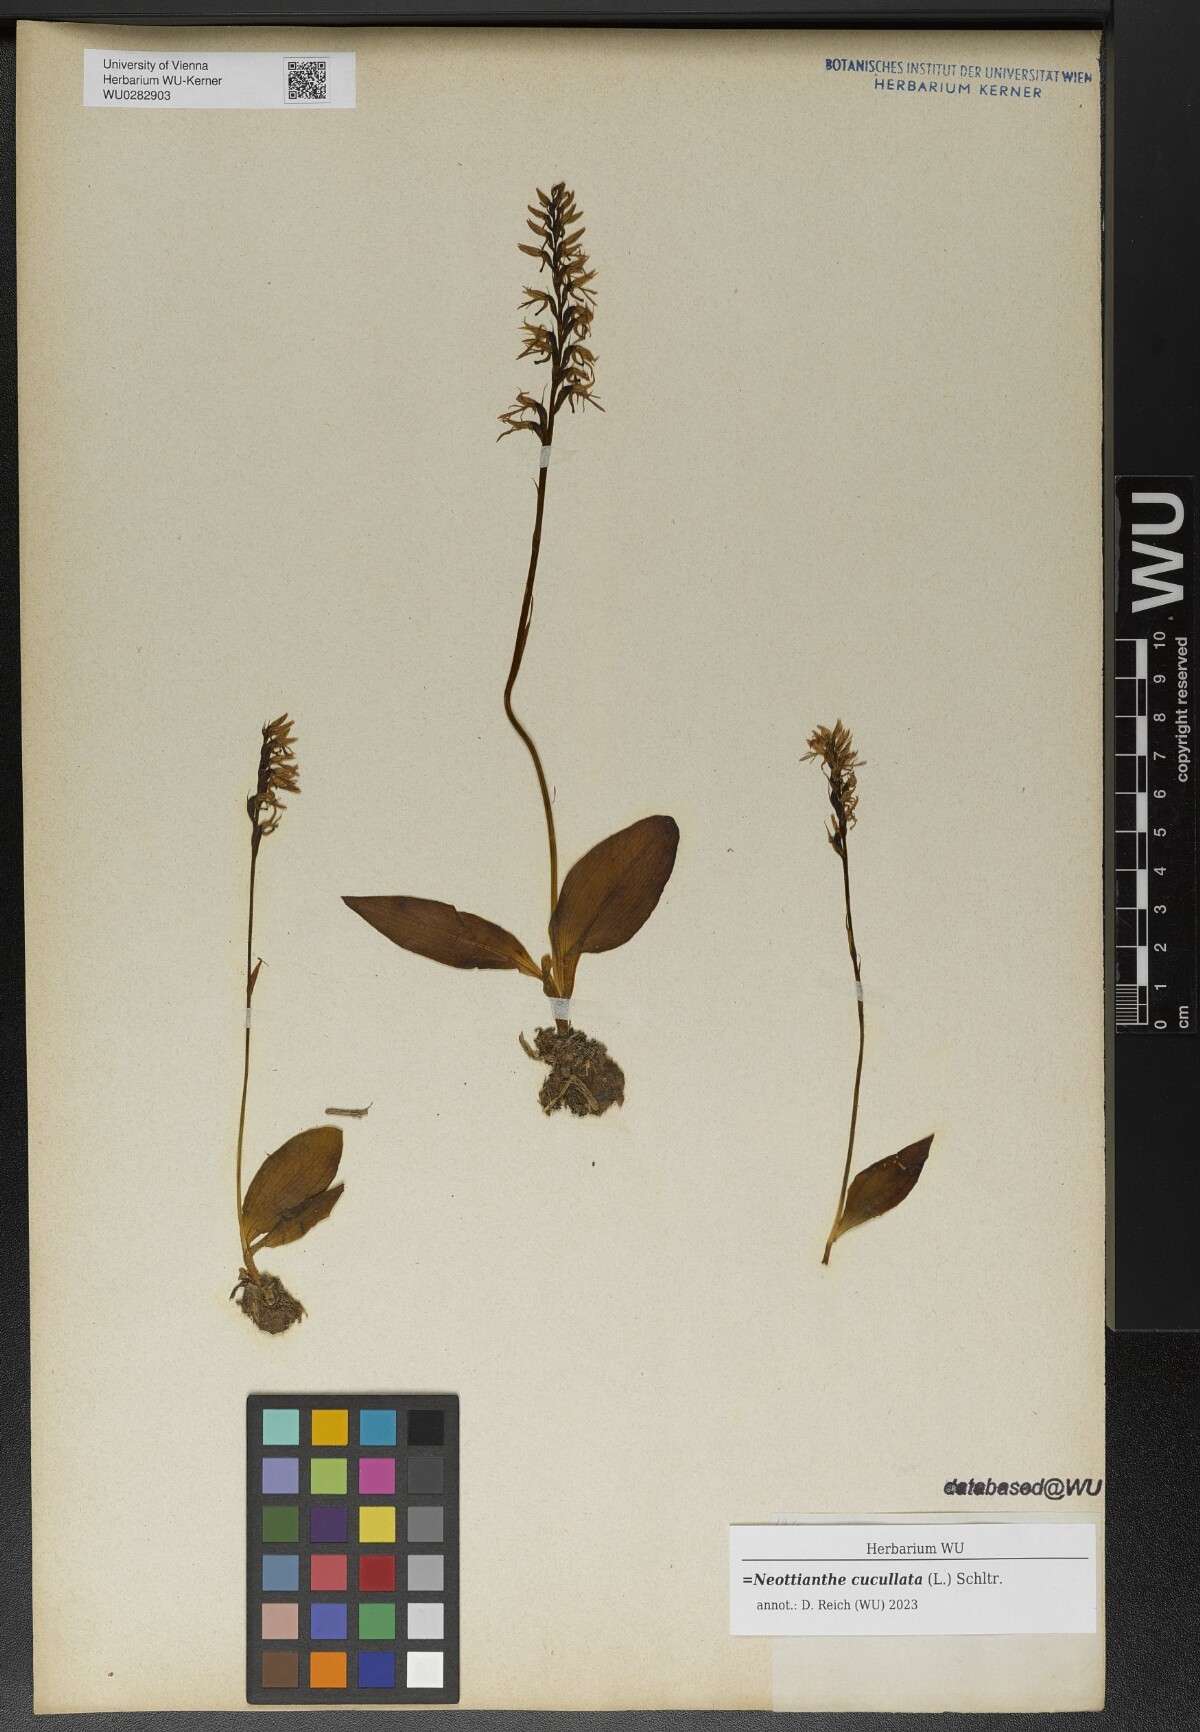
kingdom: Plantae
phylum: Tracheophyta
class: Liliopsida
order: Asparagales
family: Orchidaceae
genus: Hemipilia
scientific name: Hemipilia cucullata
